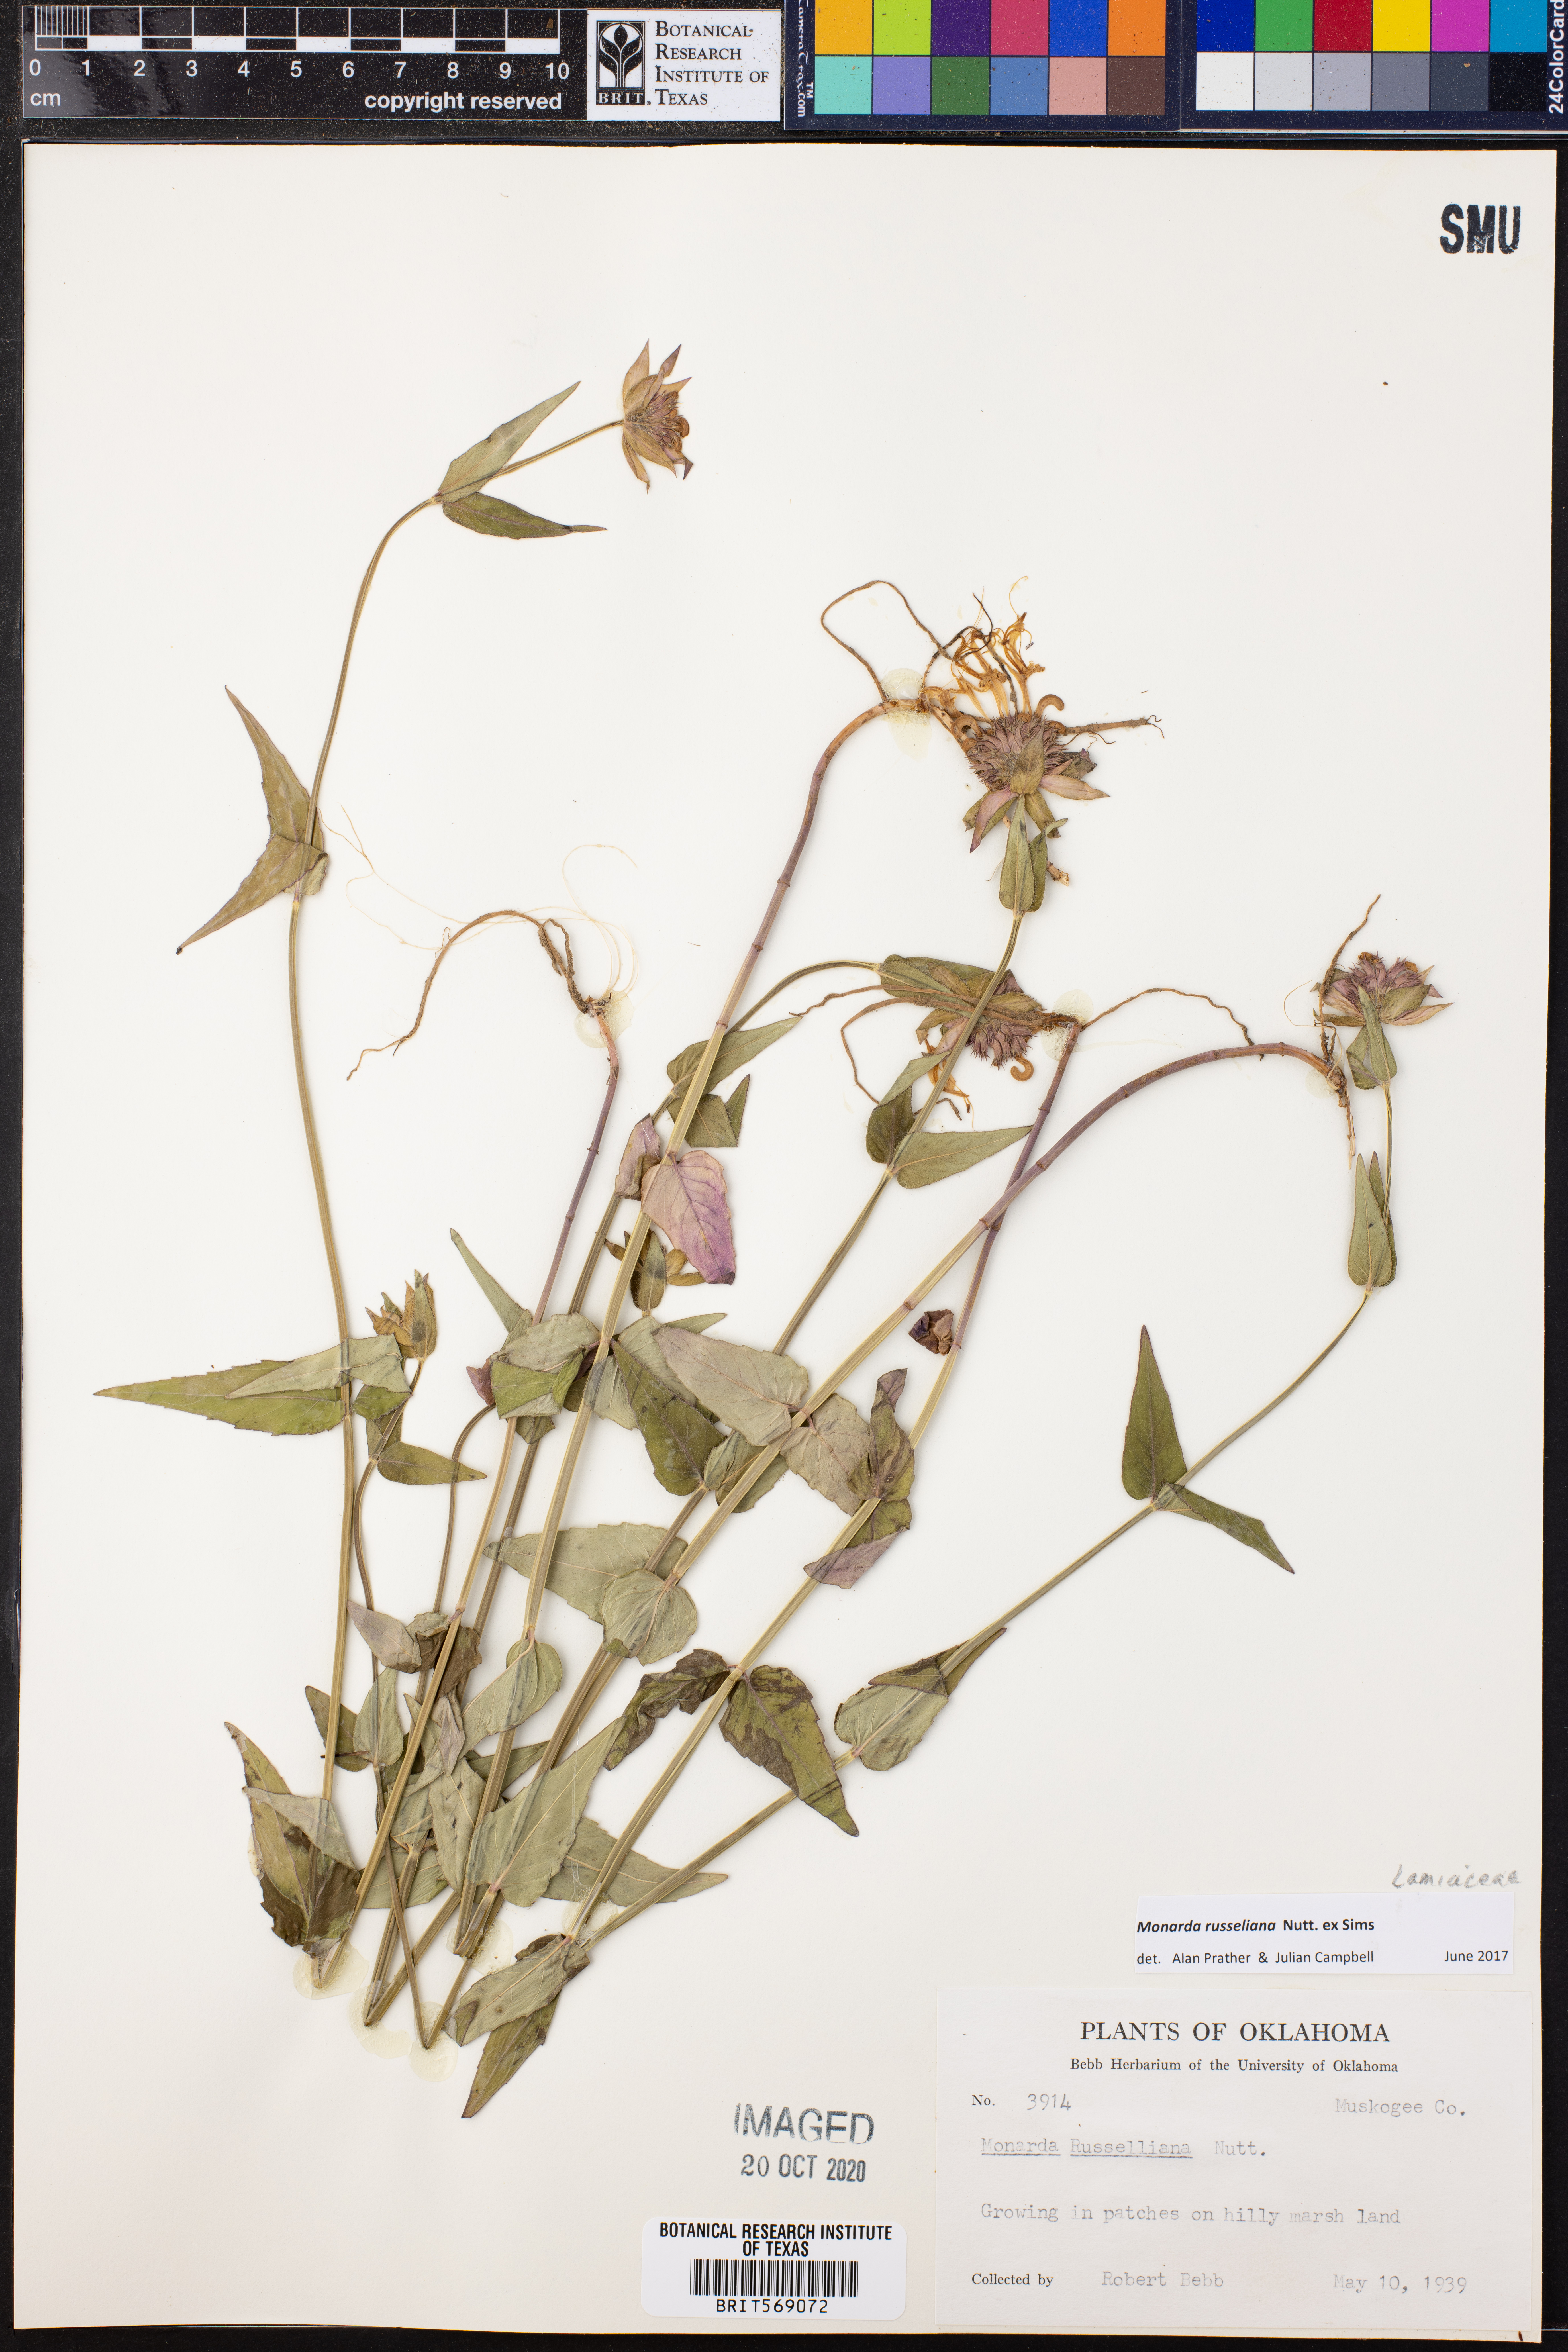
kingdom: Plantae
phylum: Tracheophyta
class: Magnoliopsida
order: Lamiales
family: Lamiaceae
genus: Monarda
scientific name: Monarda russeliana
